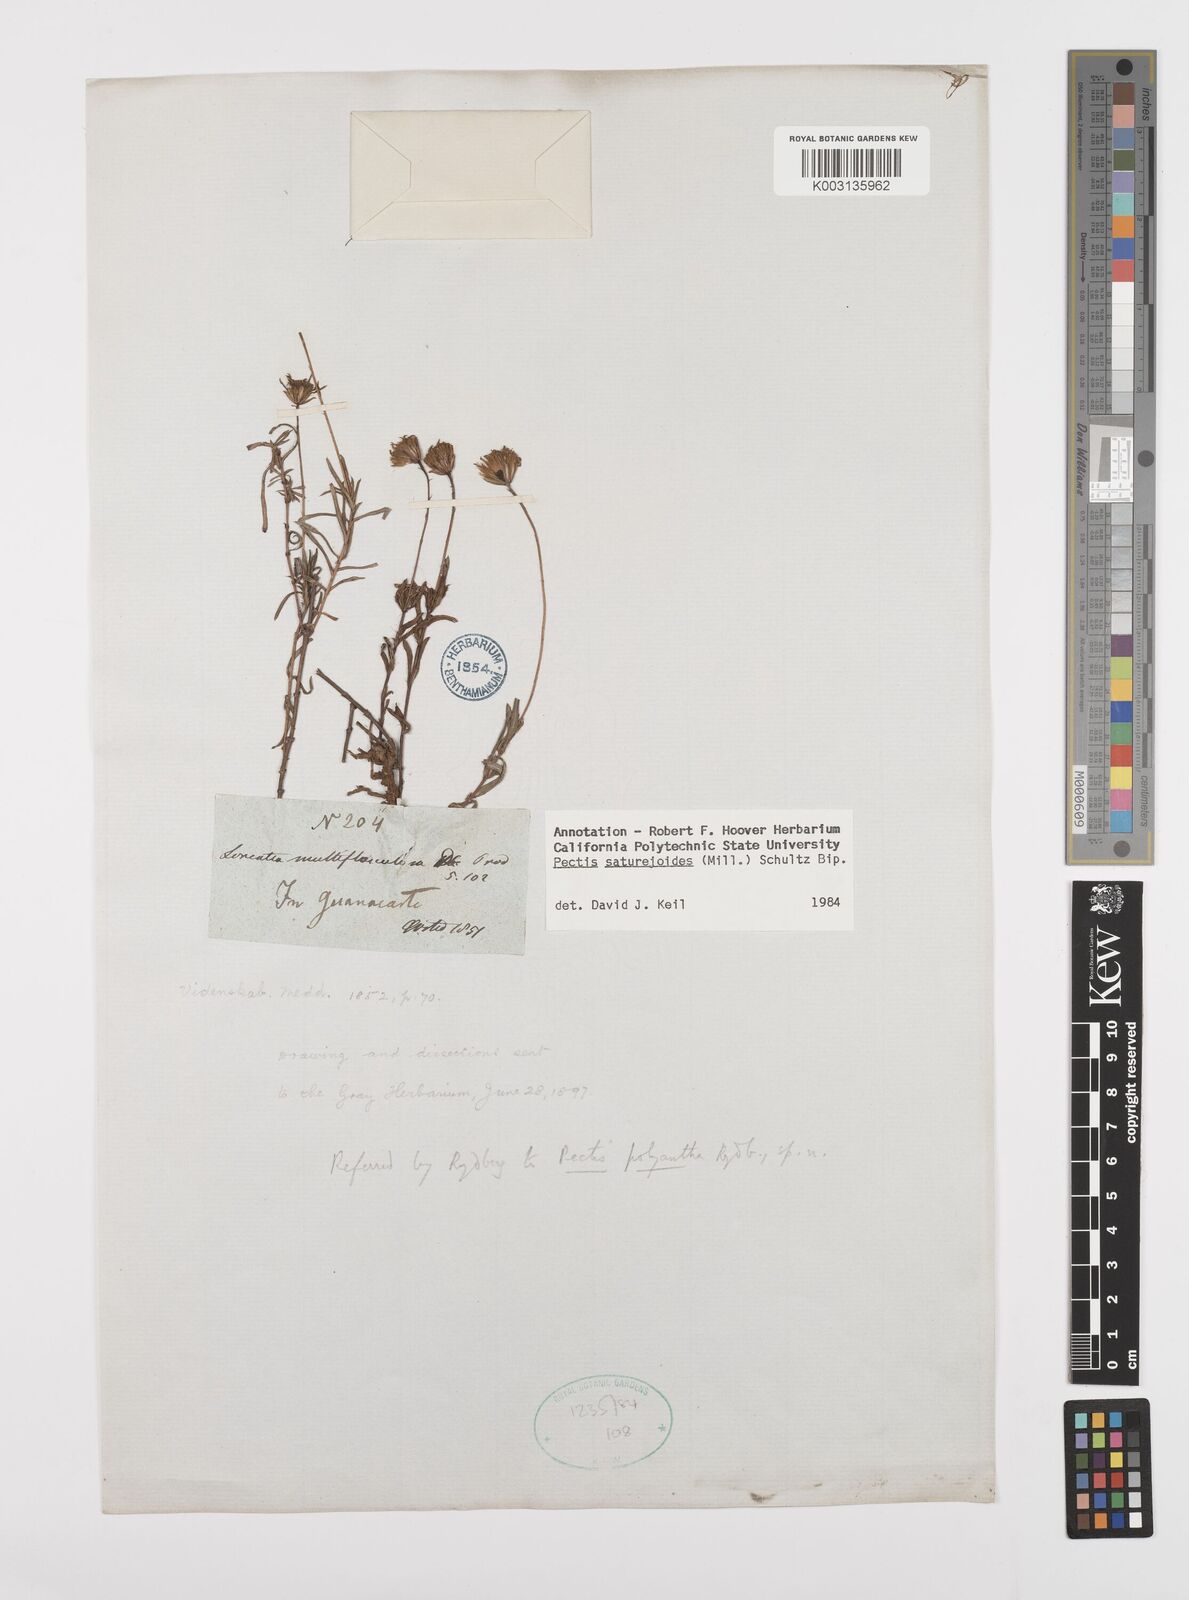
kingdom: Plantae
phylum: Tracheophyta
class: Magnoliopsida
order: Asterales
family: Asteraceae
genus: Pectis
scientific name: Pectis saturejoides
